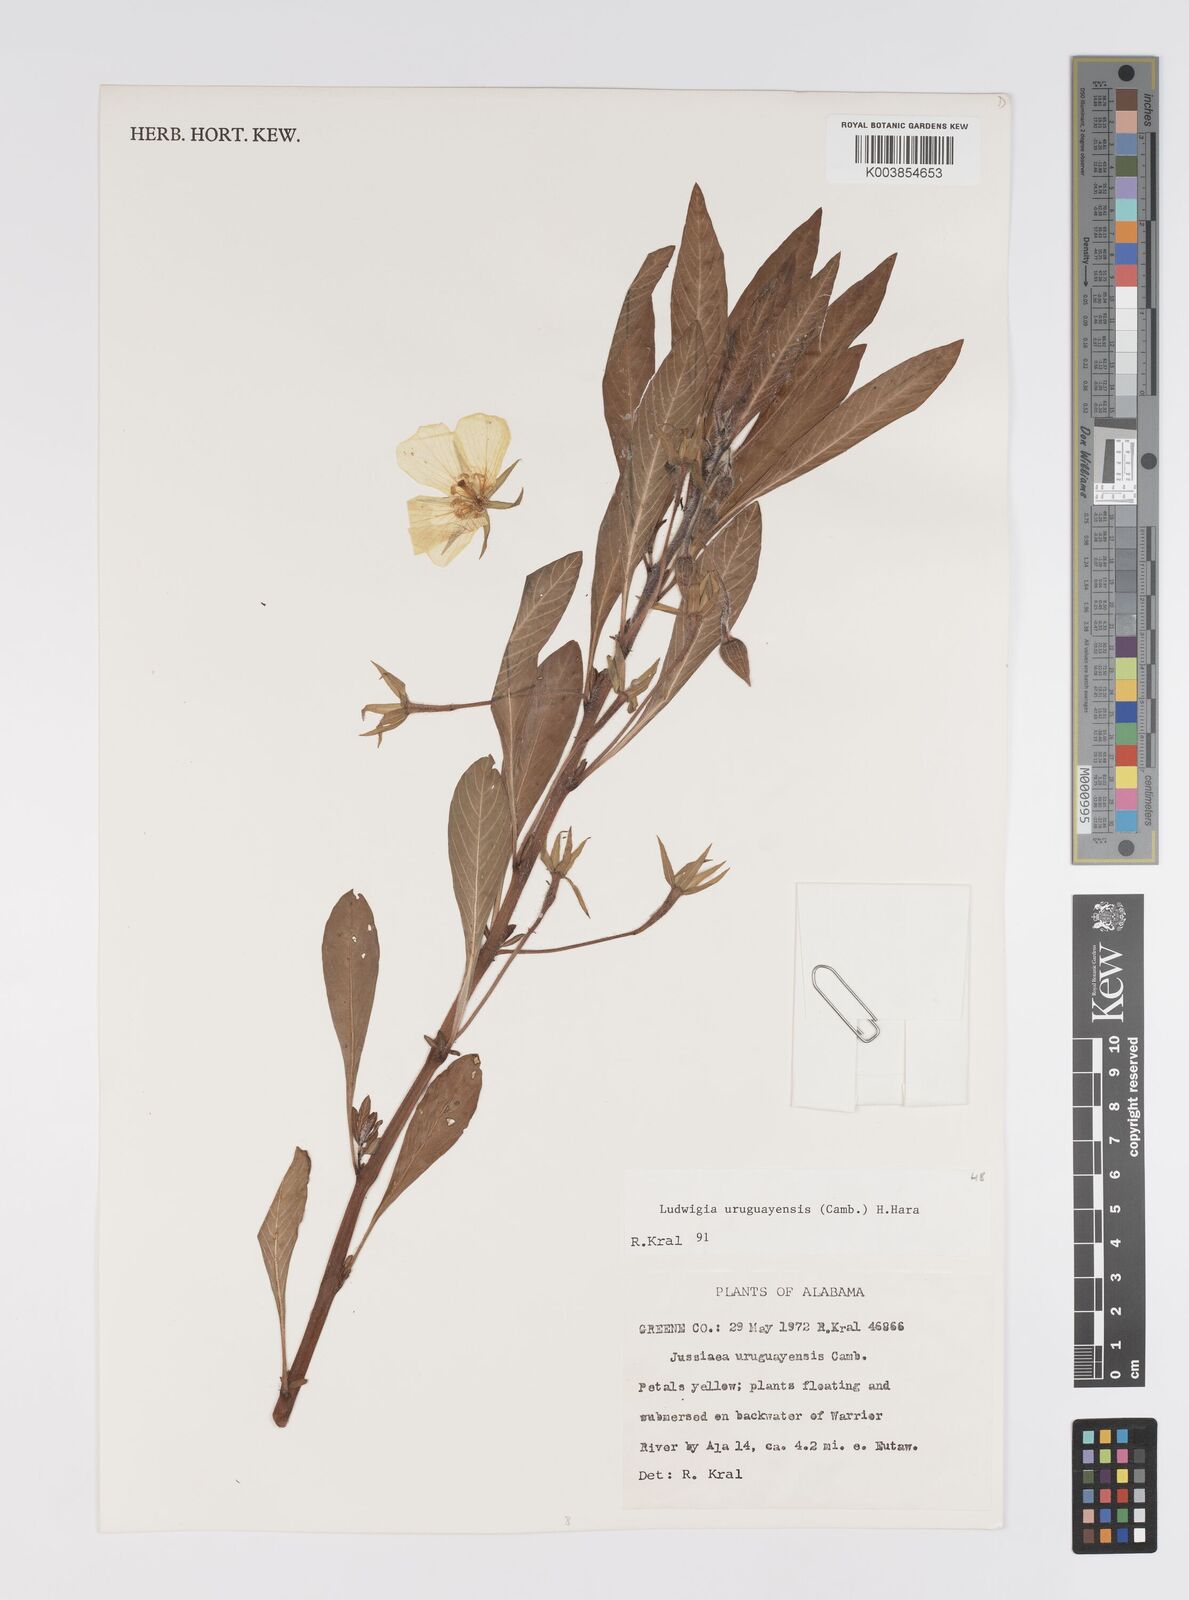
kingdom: Plantae
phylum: Tracheophyta
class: Magnoliopsida
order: Myrtales
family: Onagraceae
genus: Ludwigia
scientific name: Ludwigia grandiflora
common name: Water primrose
